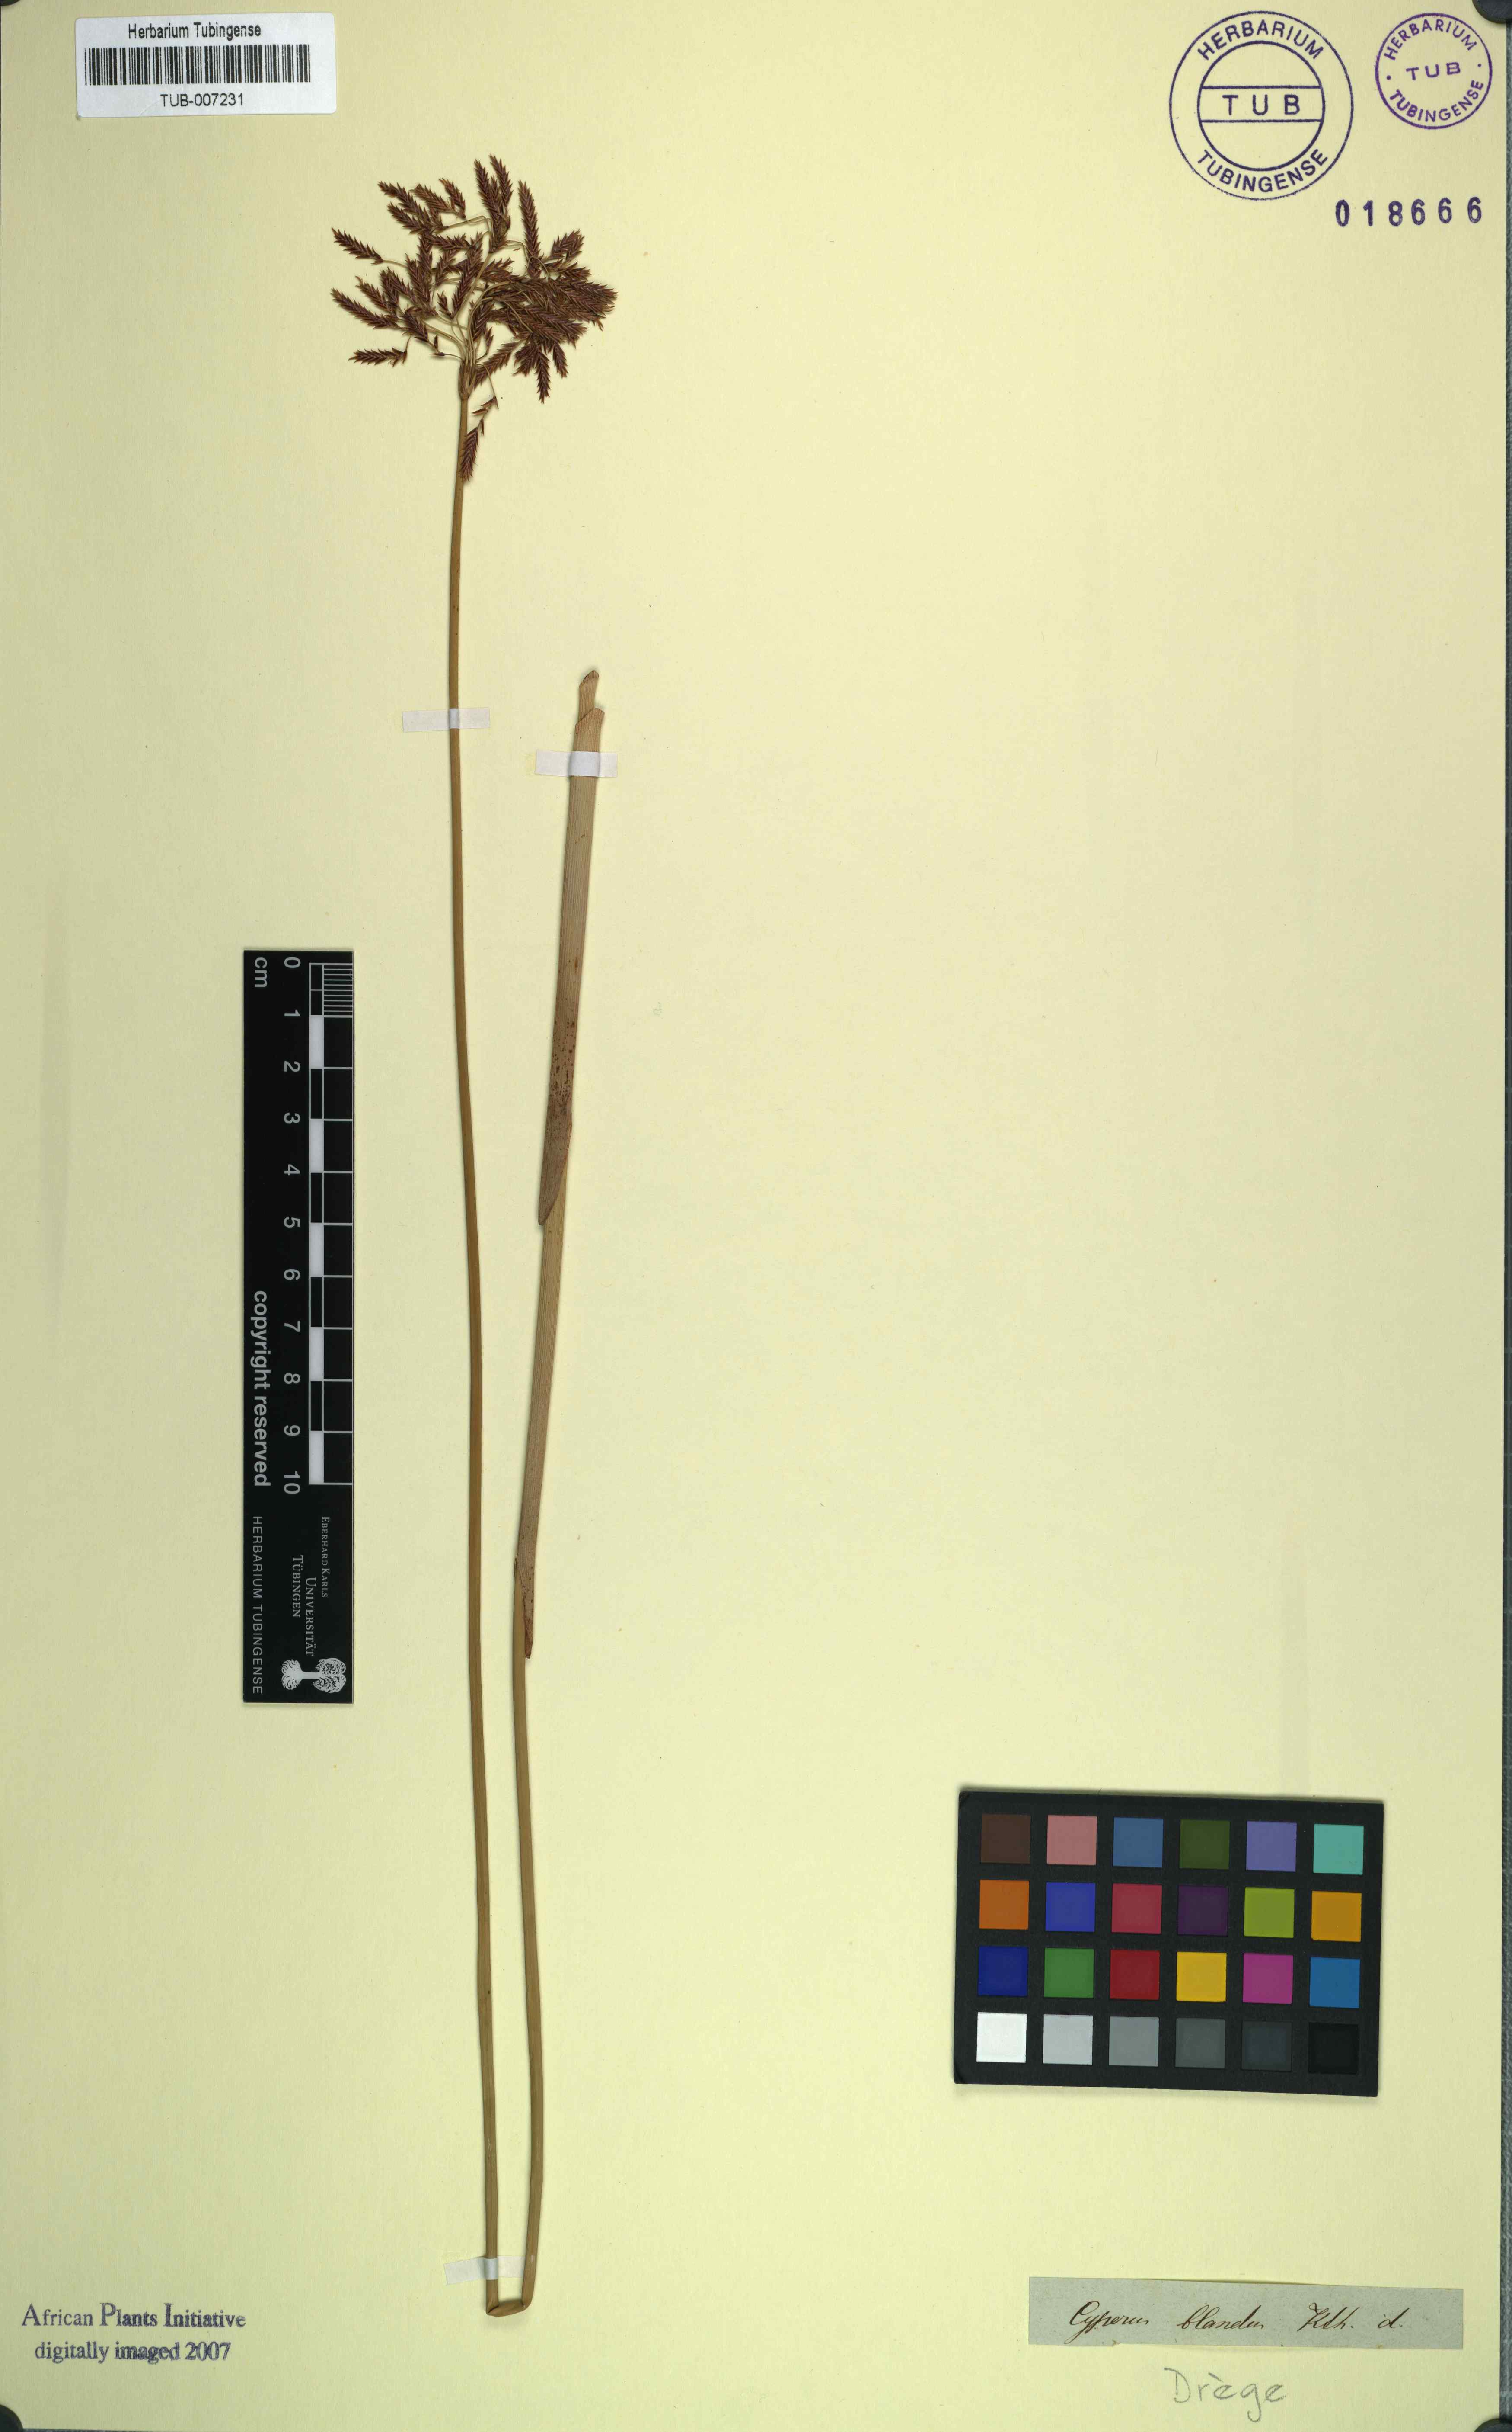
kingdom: Plantae
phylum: Tracheophyta
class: Liliopsida
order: Poales
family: Cyperaceae
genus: Cyperus
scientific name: Cyperus marginatus
